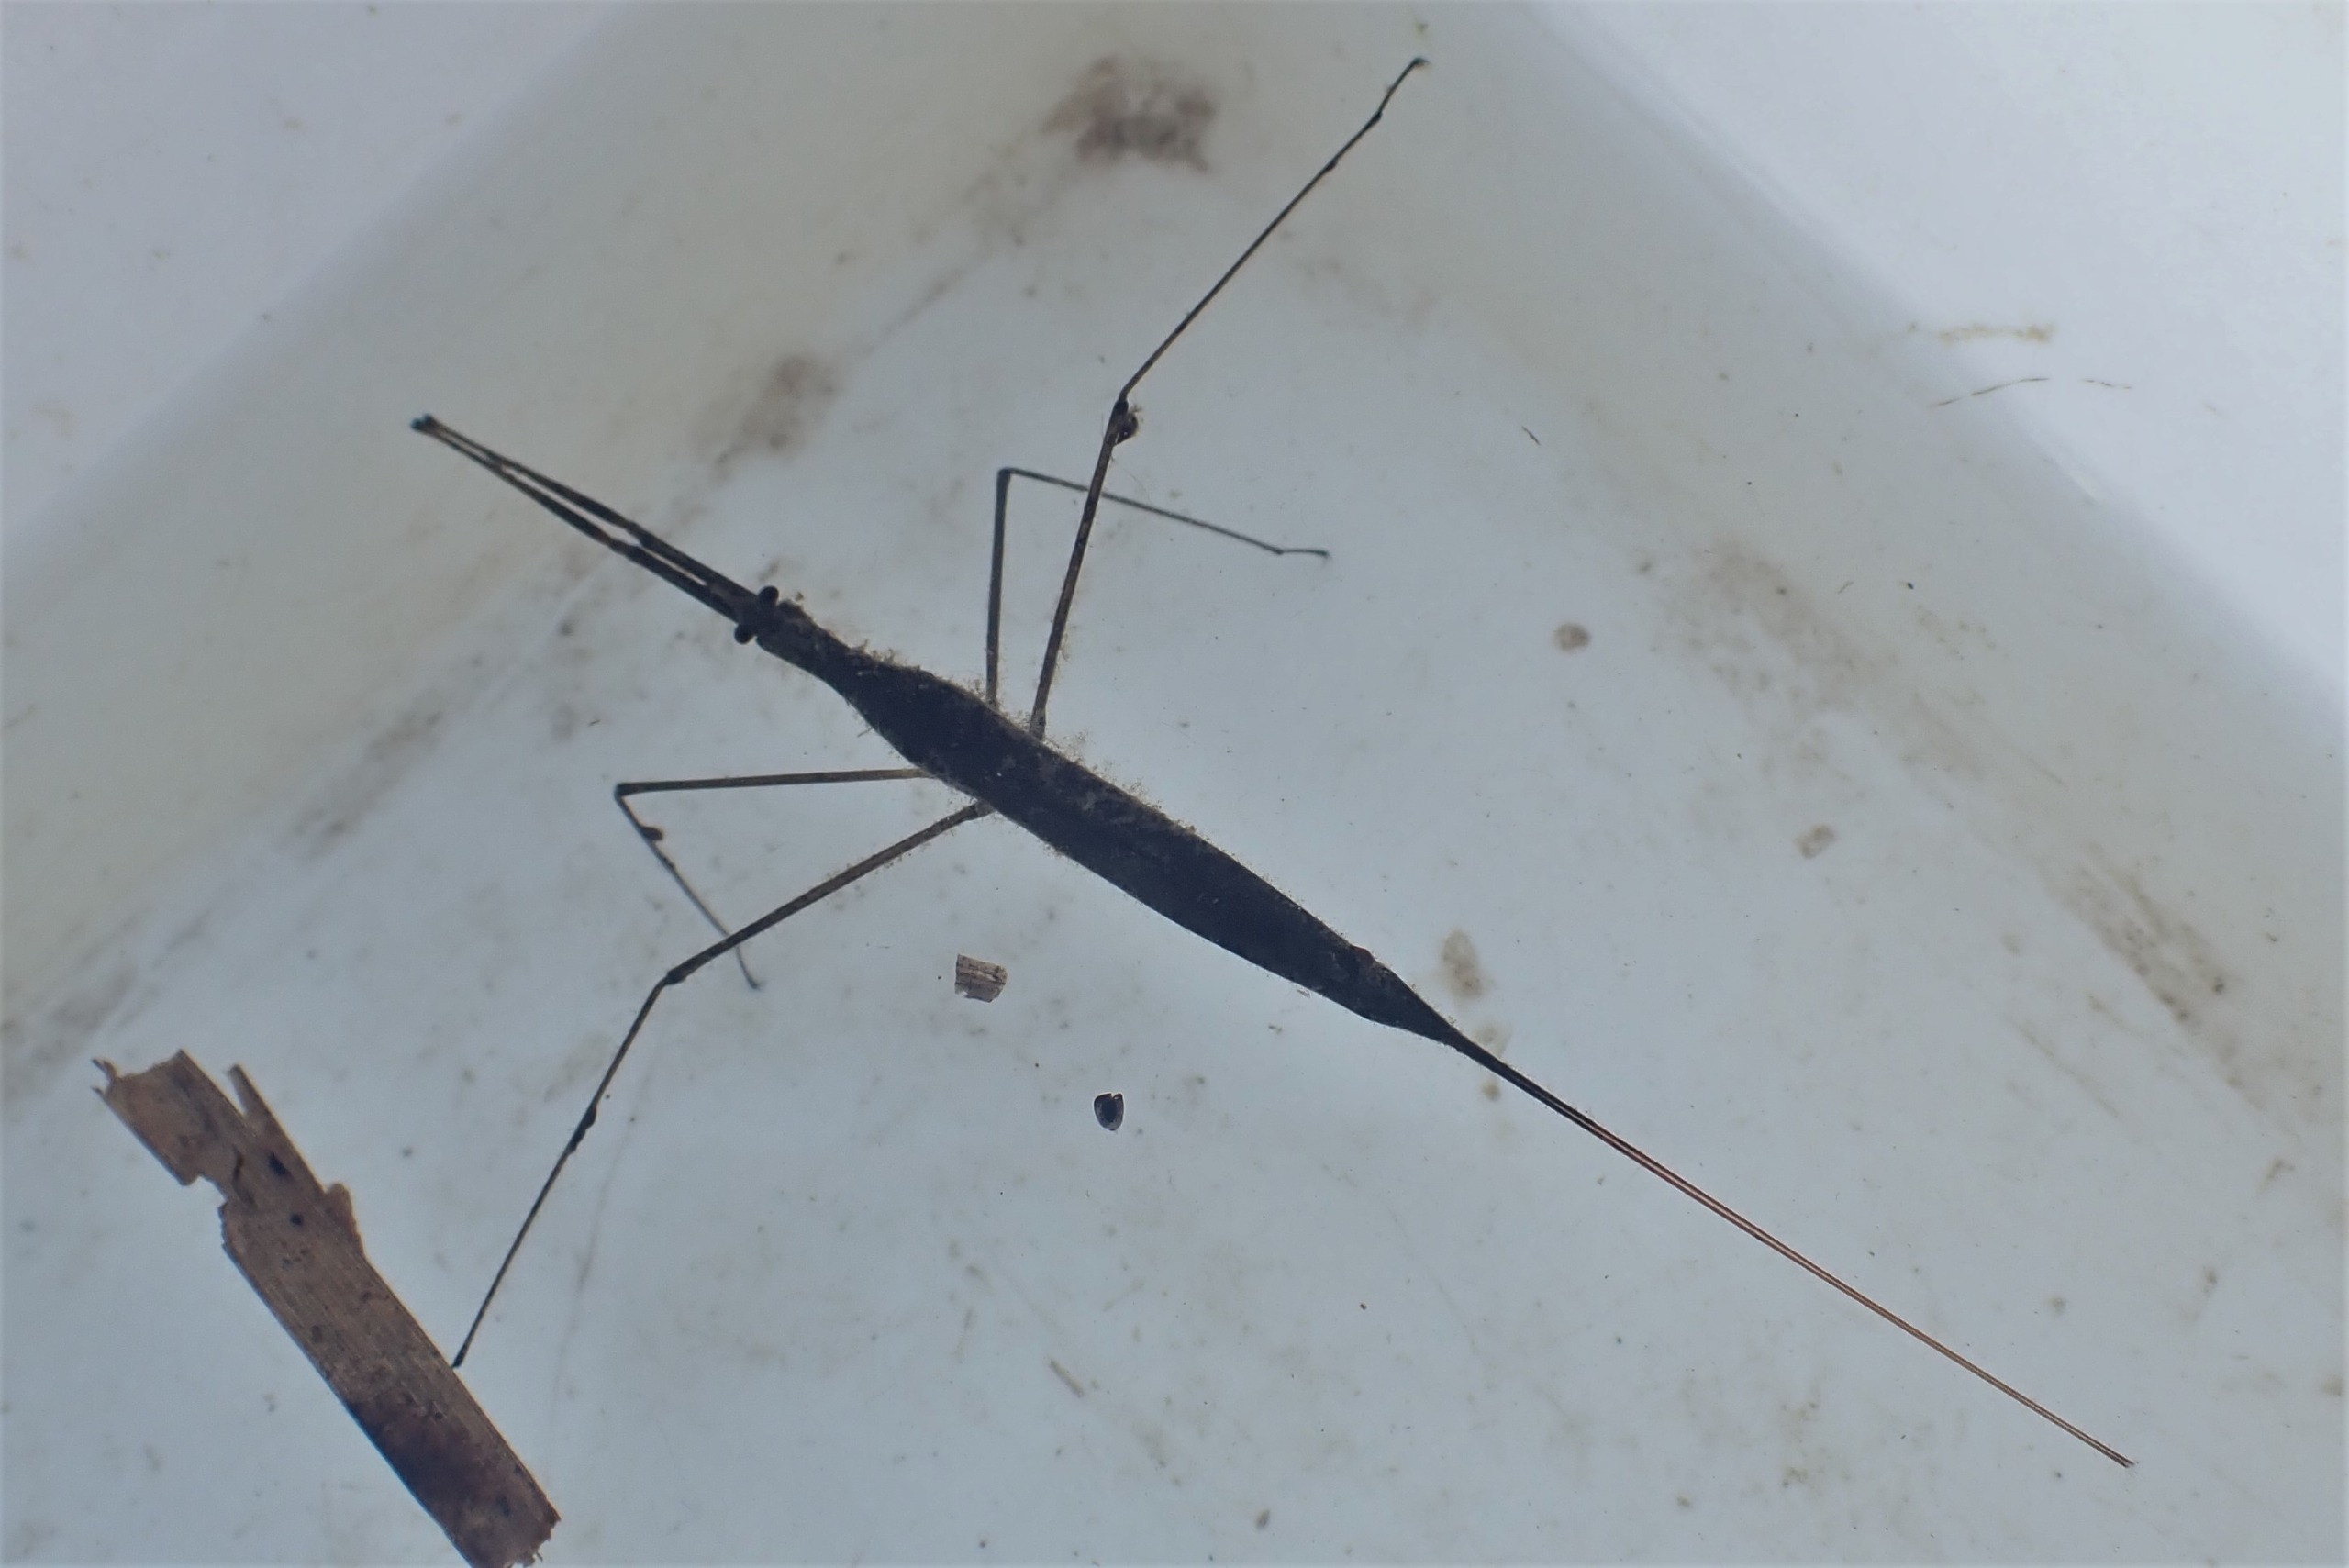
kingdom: Animalia
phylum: Arthropoda
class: Insecta
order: Hemiptera
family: Nepidae
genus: Ranatra
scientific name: Ranatra linearis
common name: Stavtæge
